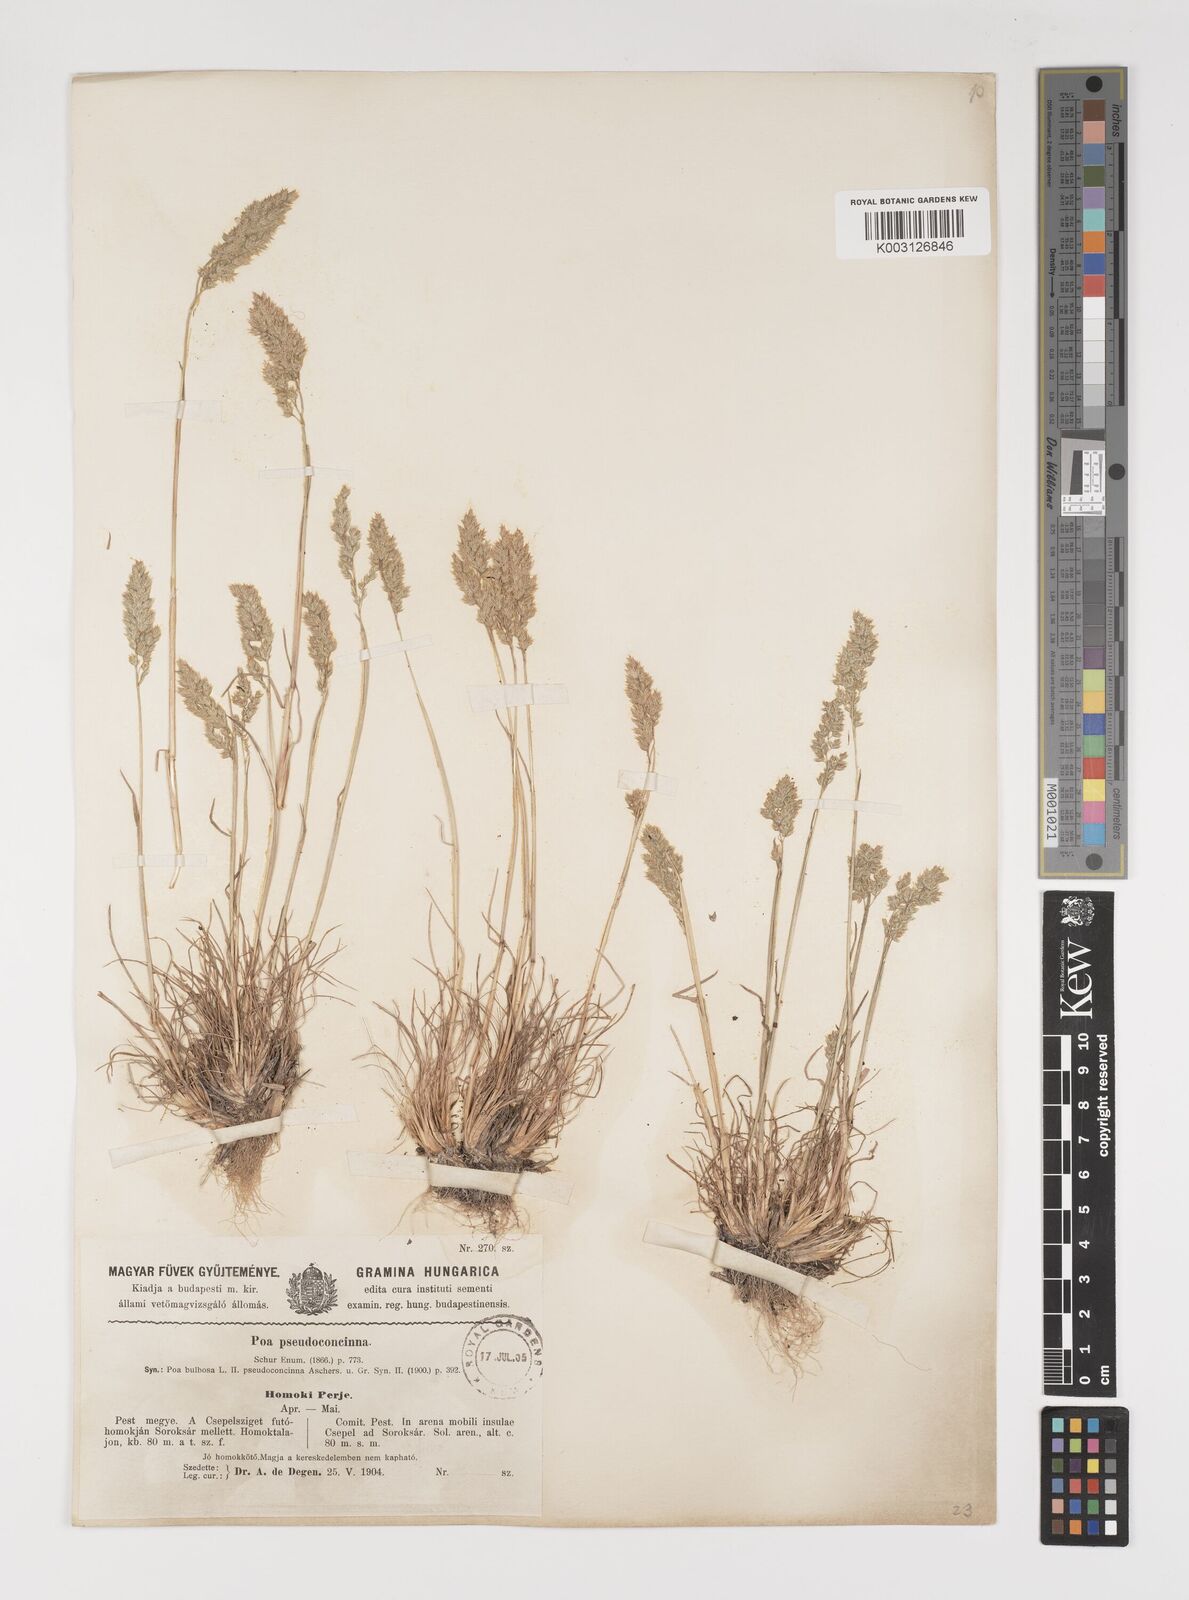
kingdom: Plantae
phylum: Tracheophyta
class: Liliopsida
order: Poales
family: Poaceae
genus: Poa
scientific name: Poa bulbosa
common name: Bulbous bluegrass
